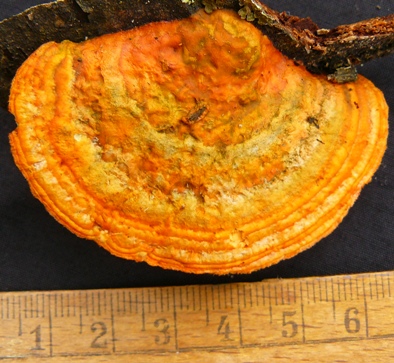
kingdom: Fungi
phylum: Basidiomycota
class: Agaricomycetes
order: Polyporales
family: Polyporaceae
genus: Trametes
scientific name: Trametes cinnabarina
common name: cinnoberporesvamp
